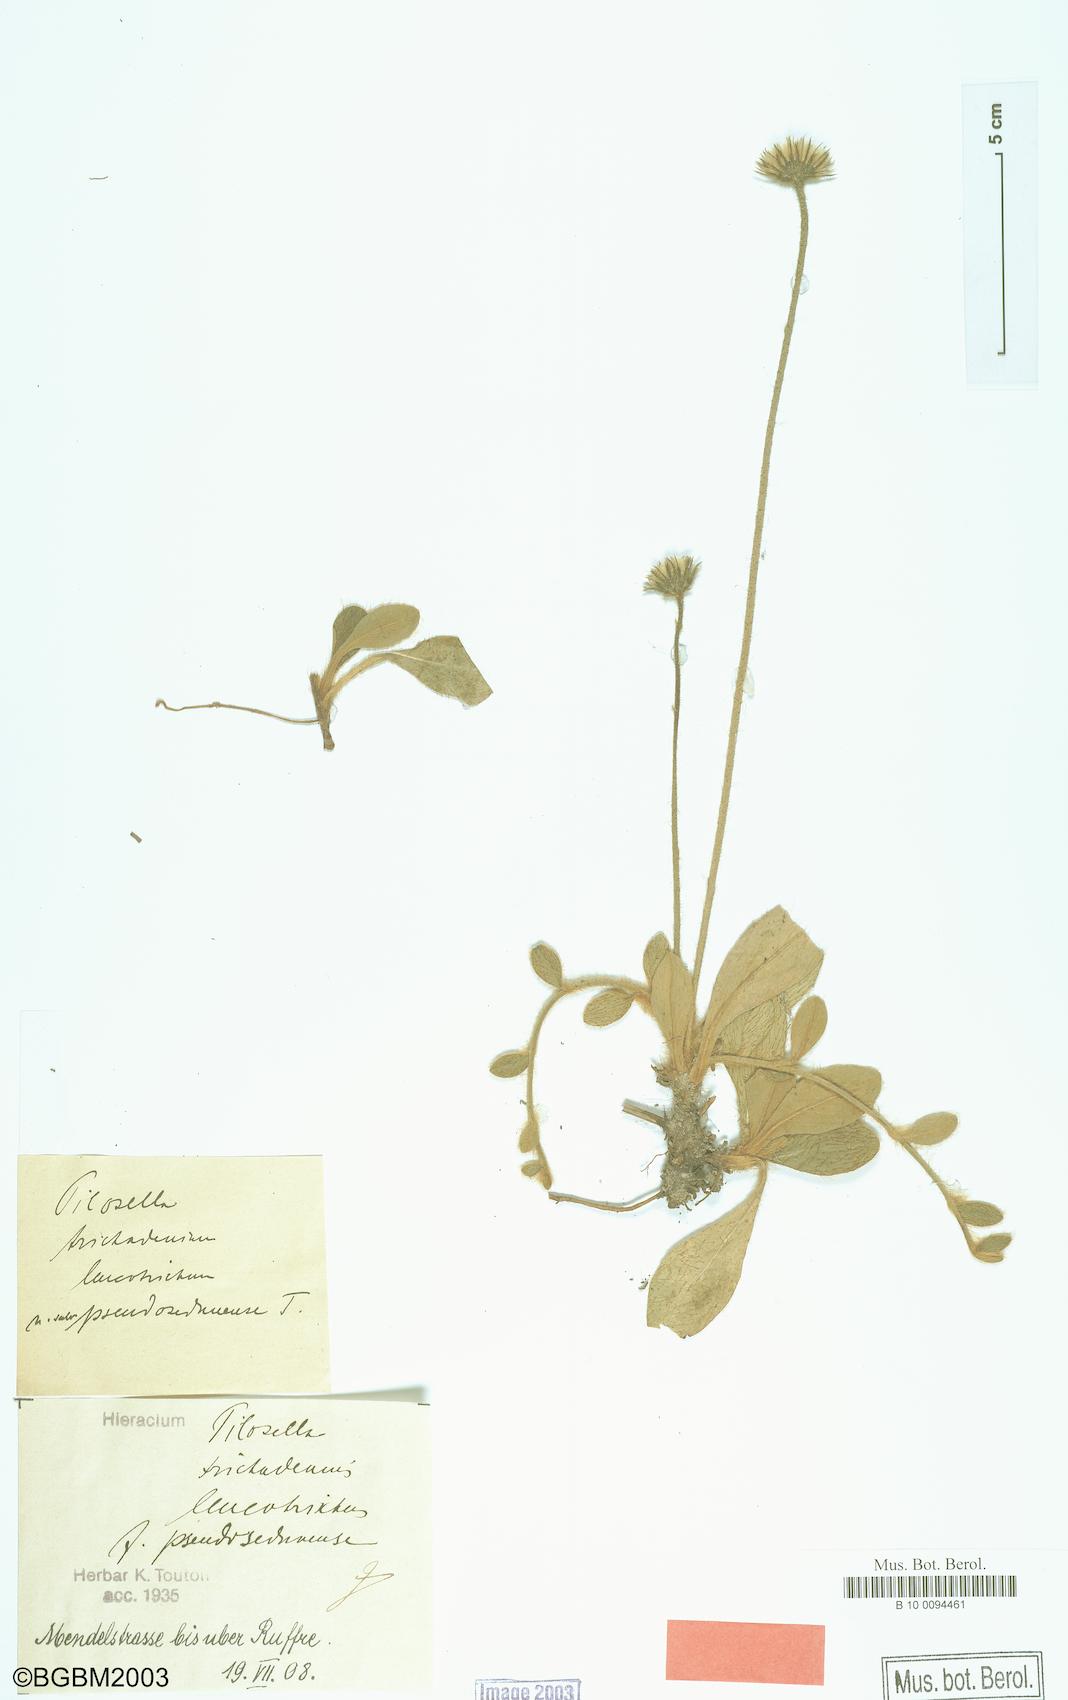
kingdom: Plantae
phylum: Tracheophyta
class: Magnoliopsida
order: Asterales
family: Asteraceae
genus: Pilosella
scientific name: Pilosella officinarum
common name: Mouse-ear hawkweed
